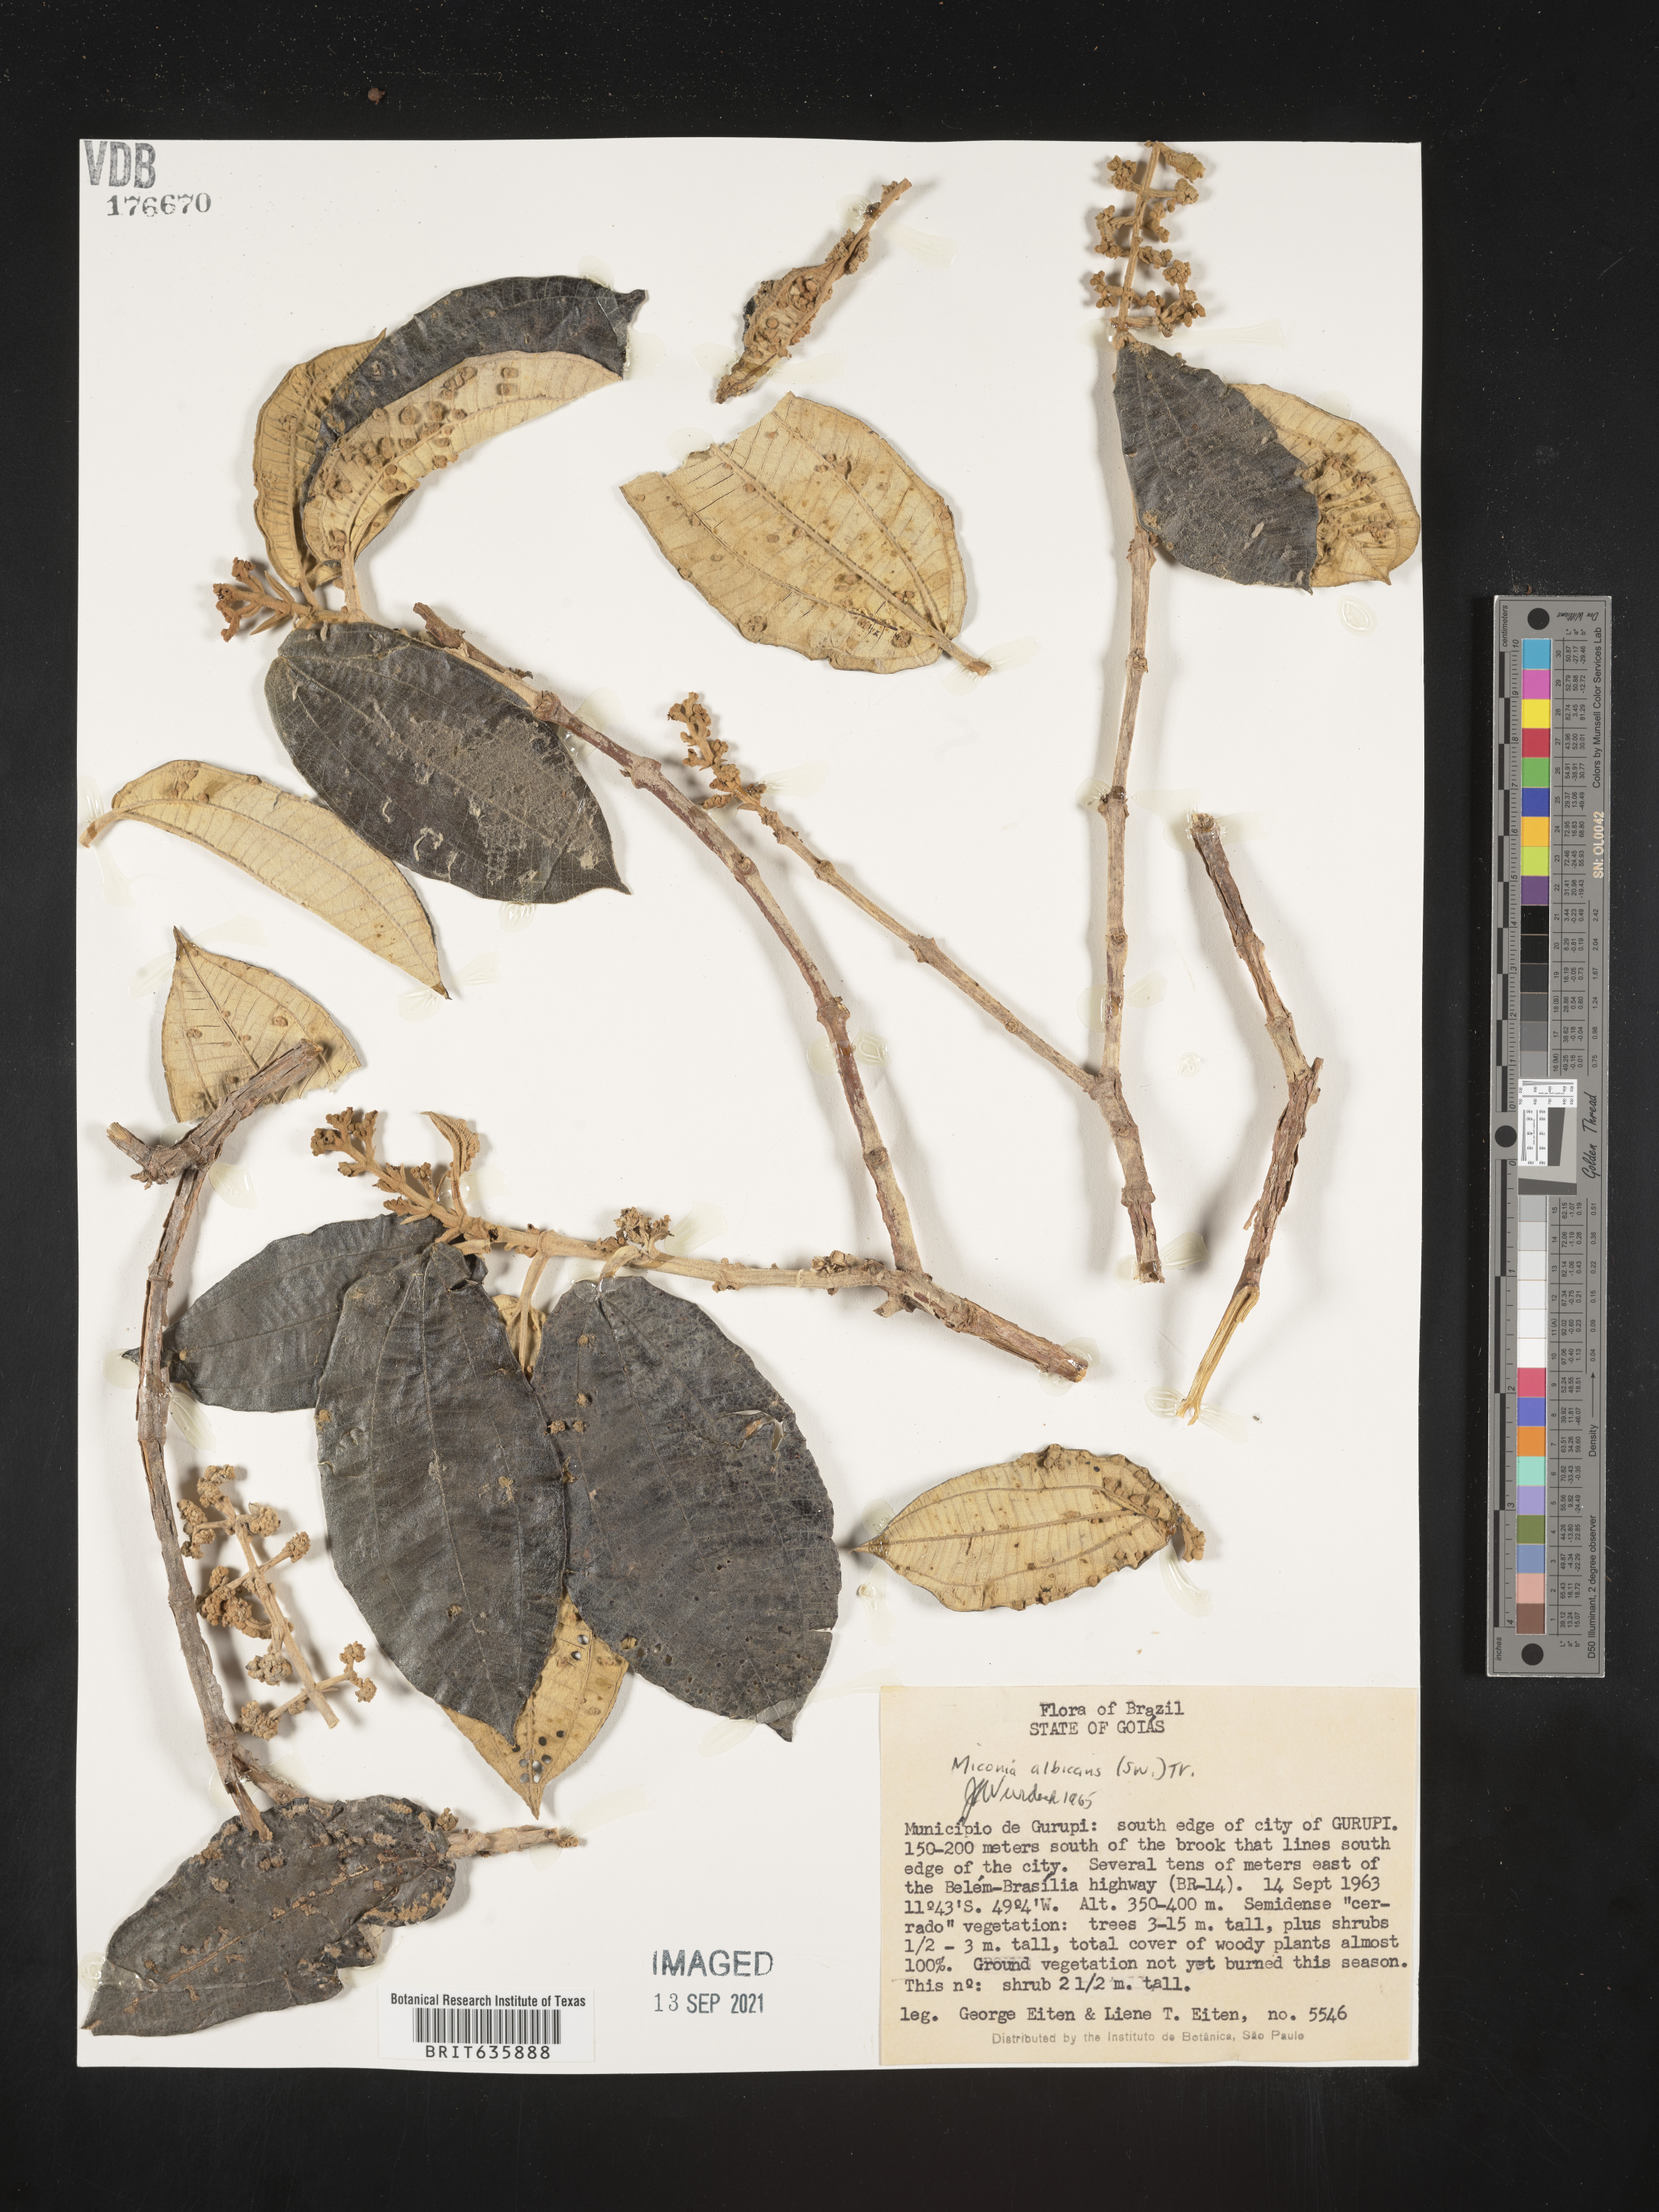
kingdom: Plantae
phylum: Tracheophyta
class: Magnoliopsida
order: Myrtales
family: Melastomataceae
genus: Miconia
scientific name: Miconia
